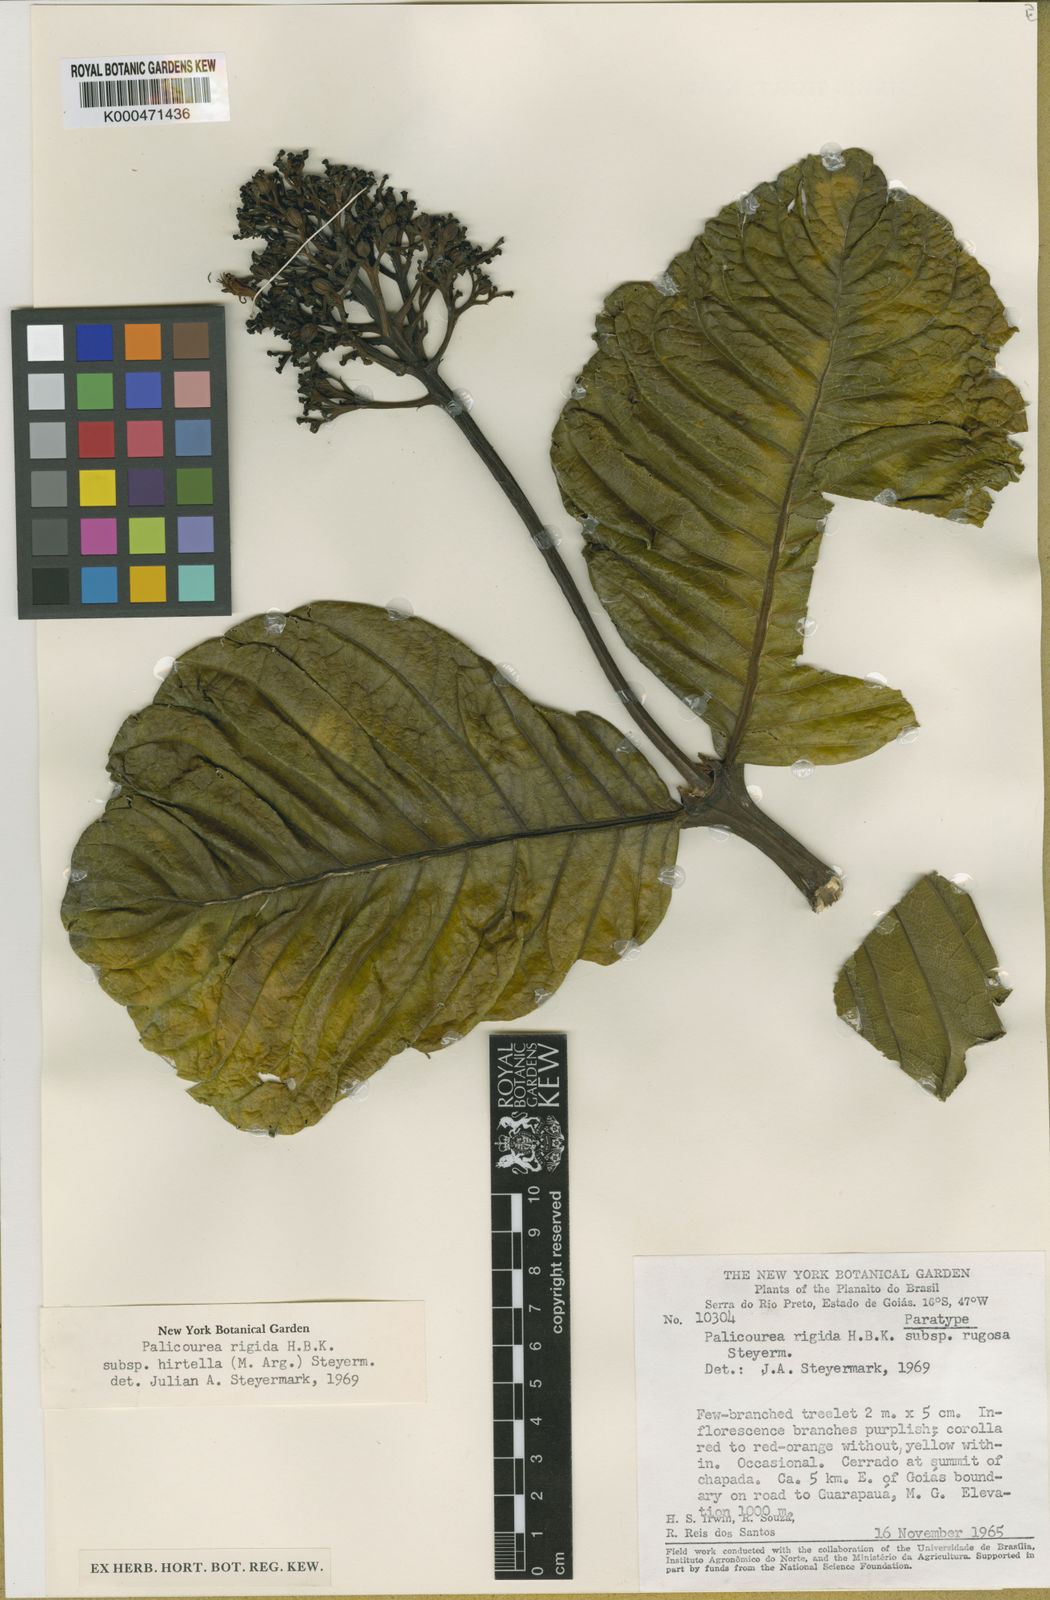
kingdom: Plantae
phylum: Tracheophyta
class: Magnoliopsida
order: Gentianales
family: Rubiaceae
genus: Palicourea
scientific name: Palicourea rigida
